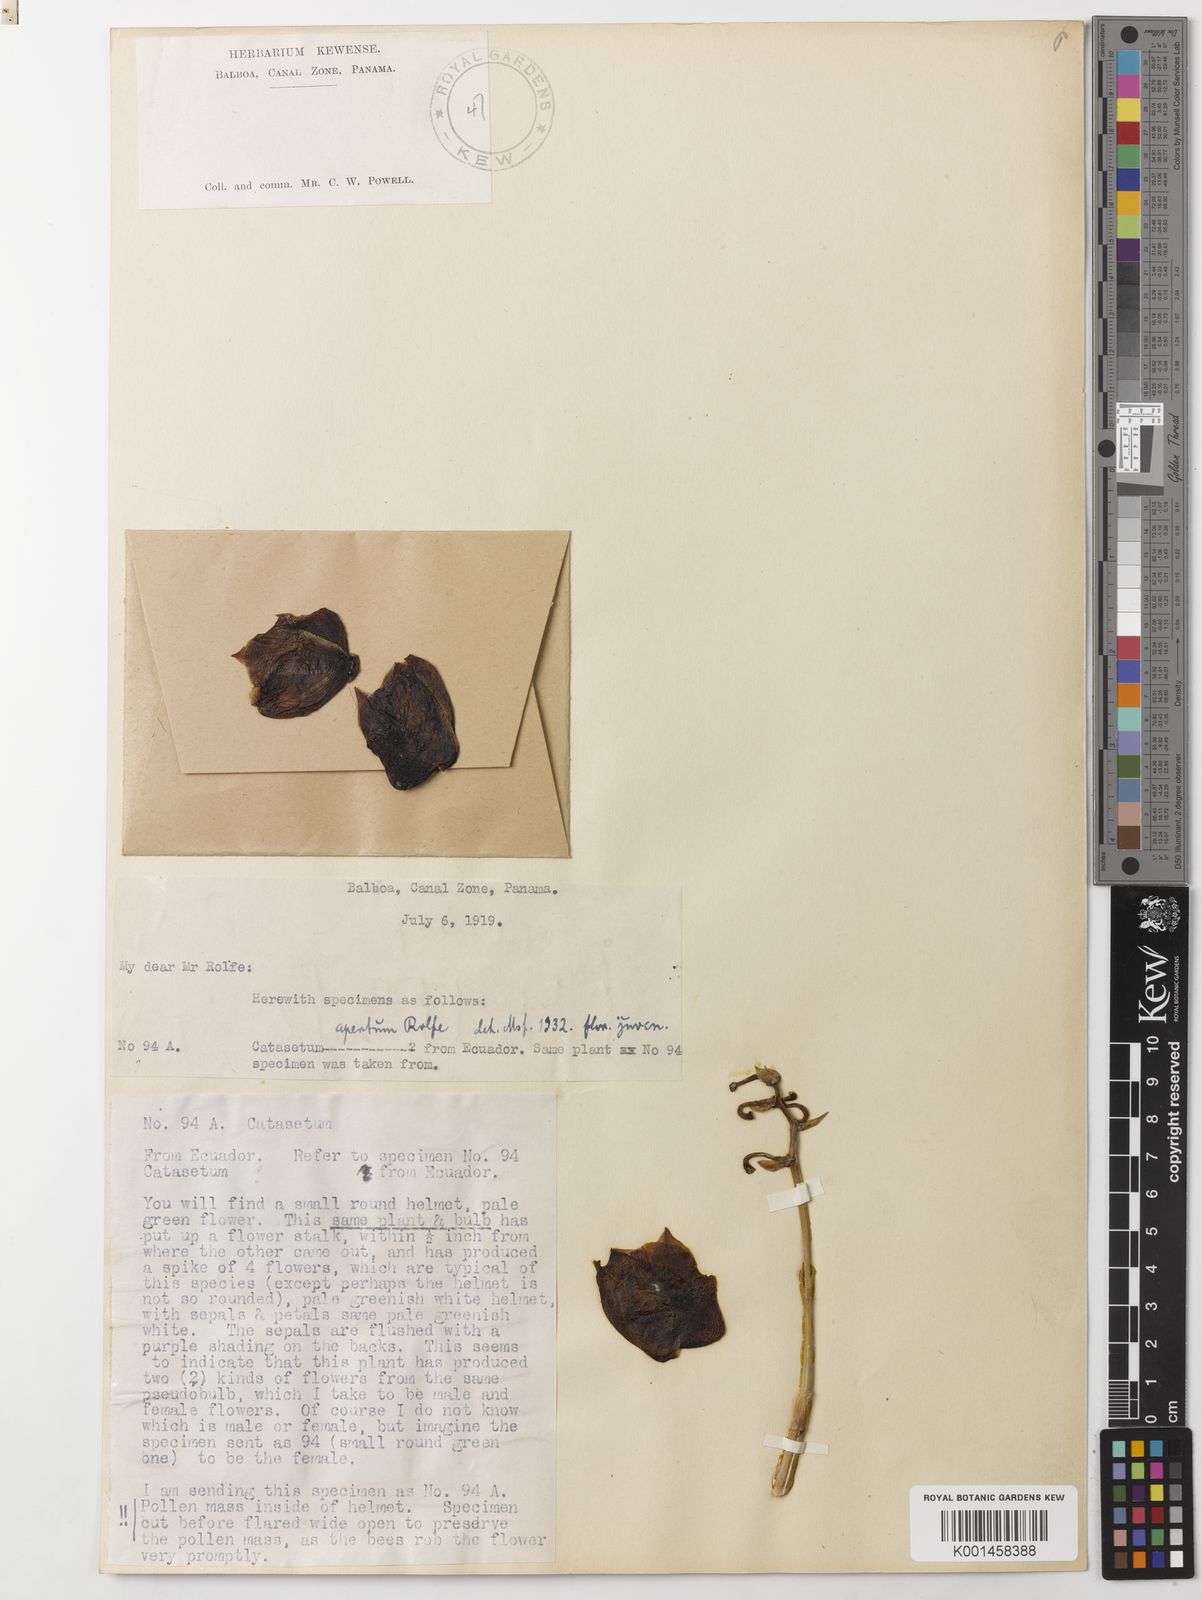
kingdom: Plantae
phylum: Tracheophyta
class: Liliopsida
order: Asparagales
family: Orchidaceae
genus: Catasetum
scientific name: Catasetum tapiriceps
